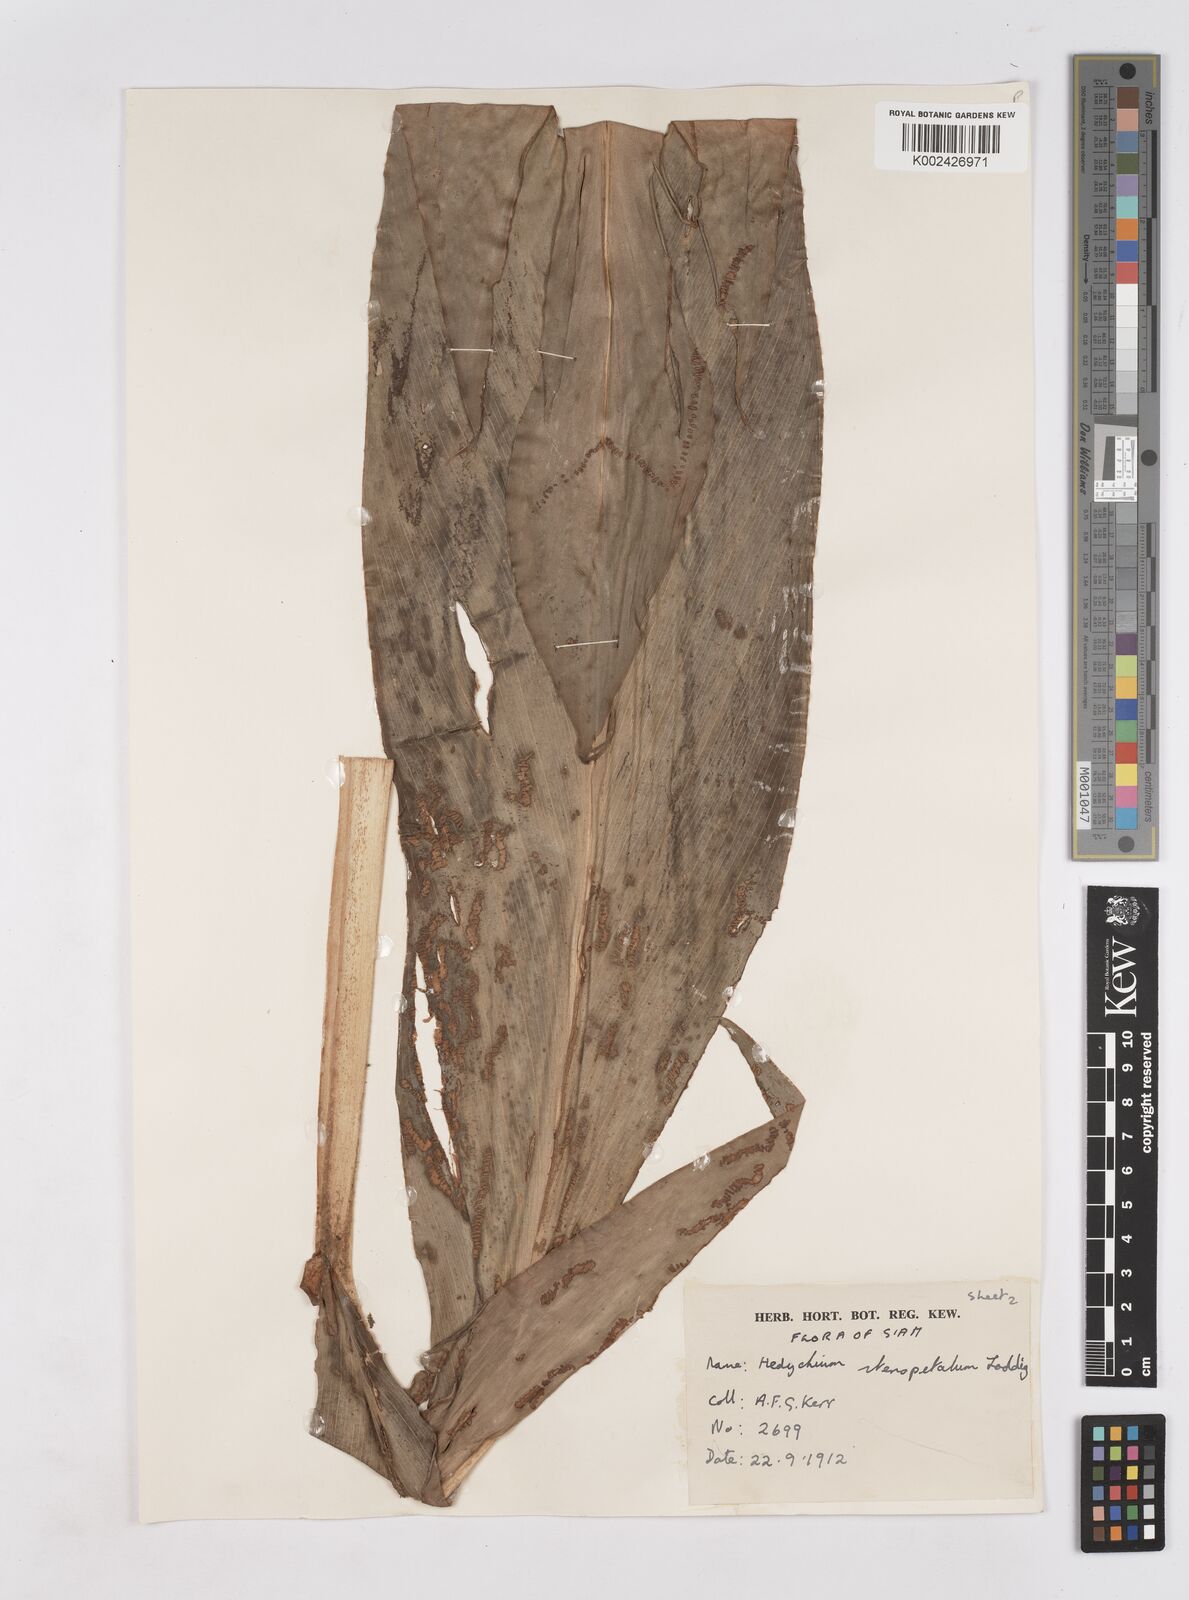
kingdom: Plantae
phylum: Tracheophyta
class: Liliopsida
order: Zingiberales
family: Zingiberaceae
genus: Hedychium
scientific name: Hedychium stenopetalum
